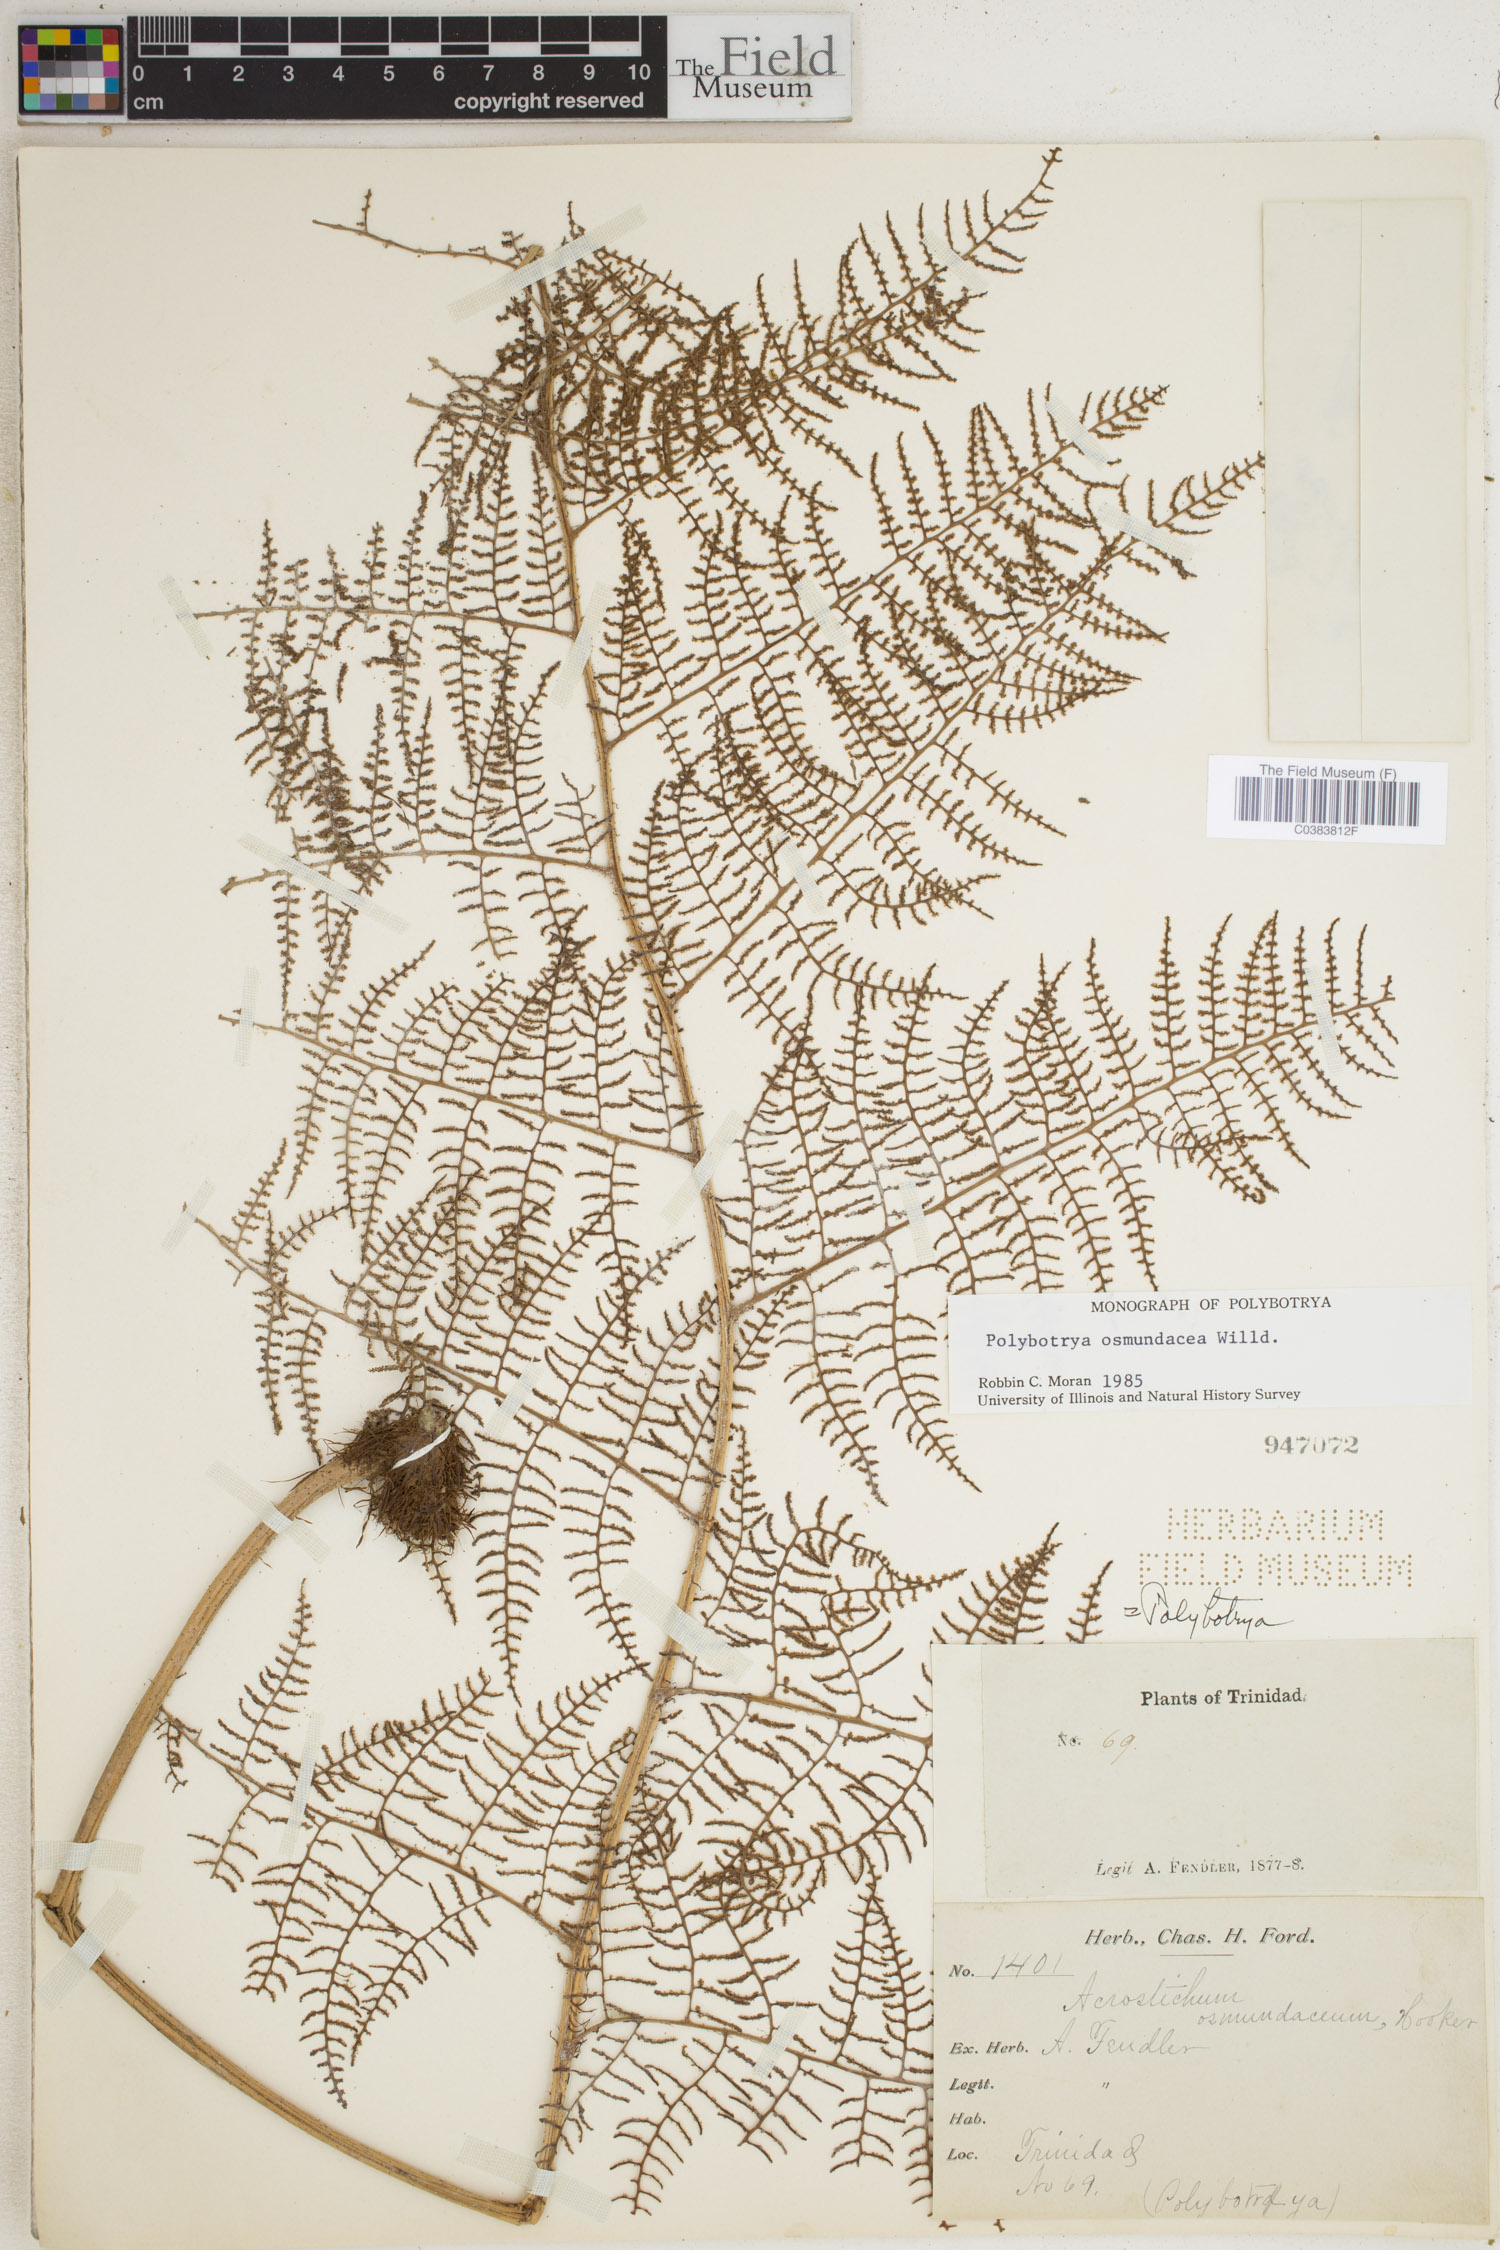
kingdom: Plantae
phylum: Tracheophyta
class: Polypodiopsida
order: Polypodiales
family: Dryopteridaceae
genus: Polybotrya
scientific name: Polybotrya osmundacea
